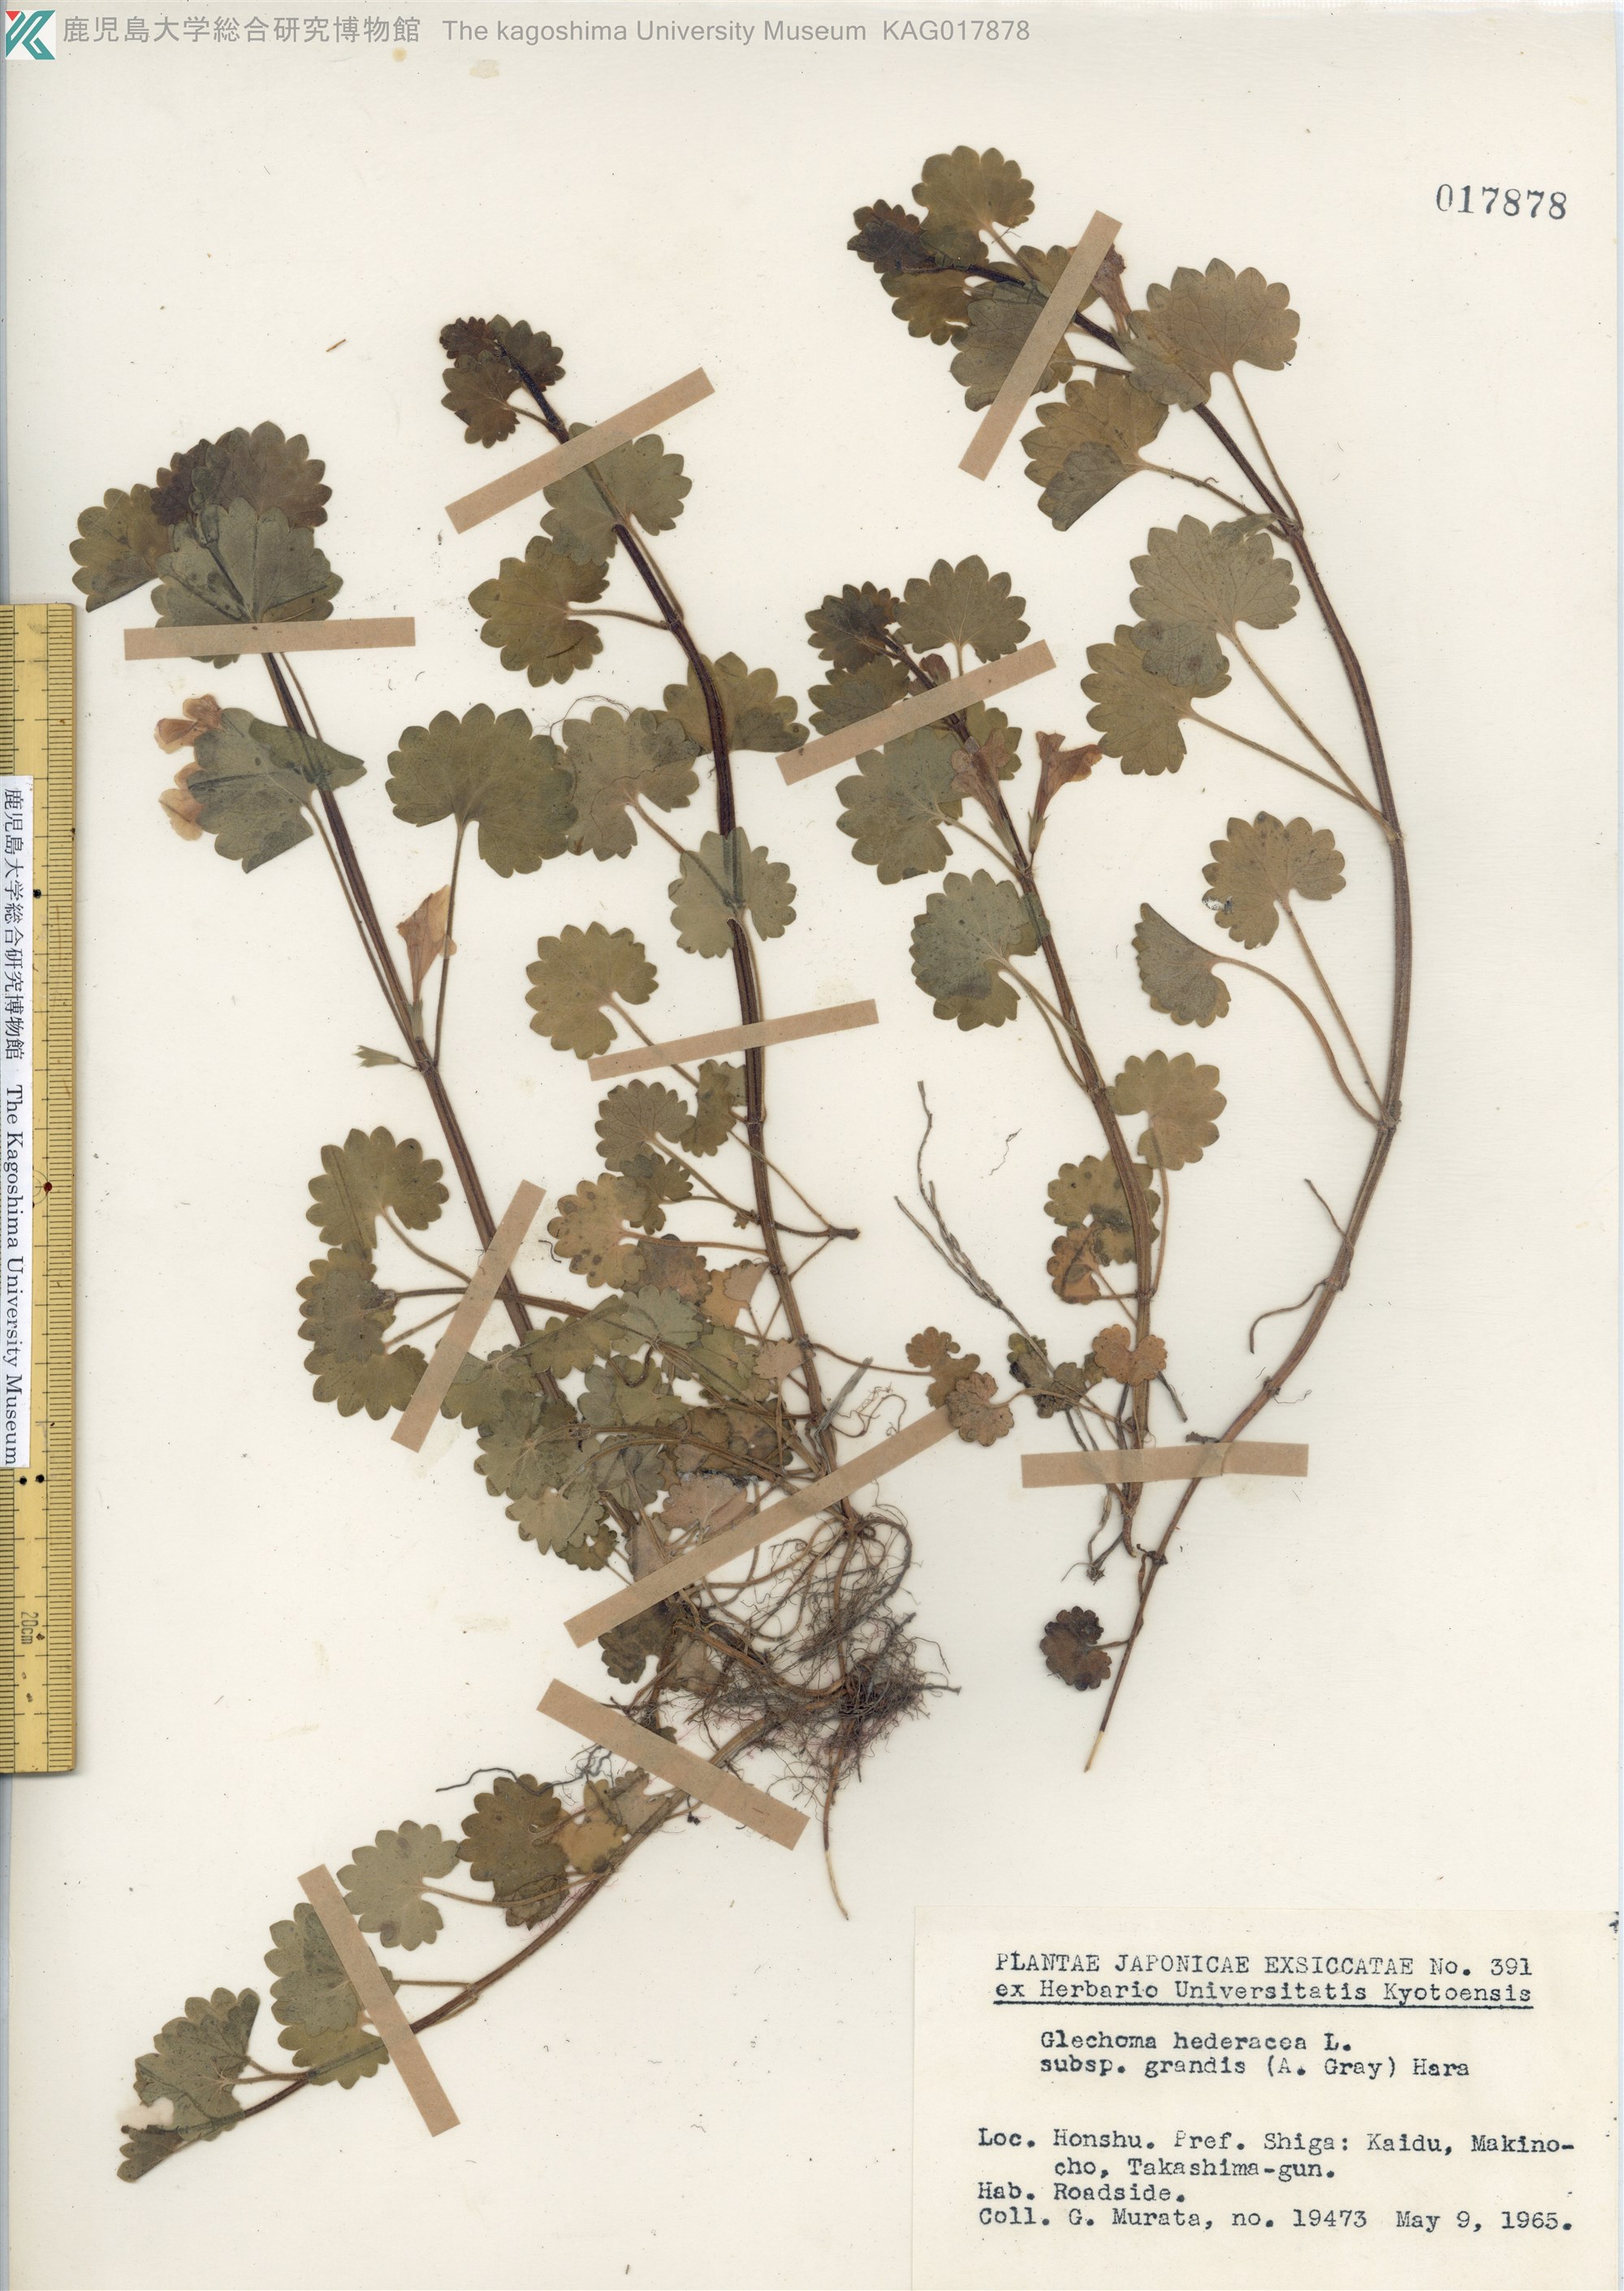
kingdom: Plantae
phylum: Tracheophyta
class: Magnoliopsida
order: Lamiales
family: Lamiaceae
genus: Glechoma
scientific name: Glechoma grandis
